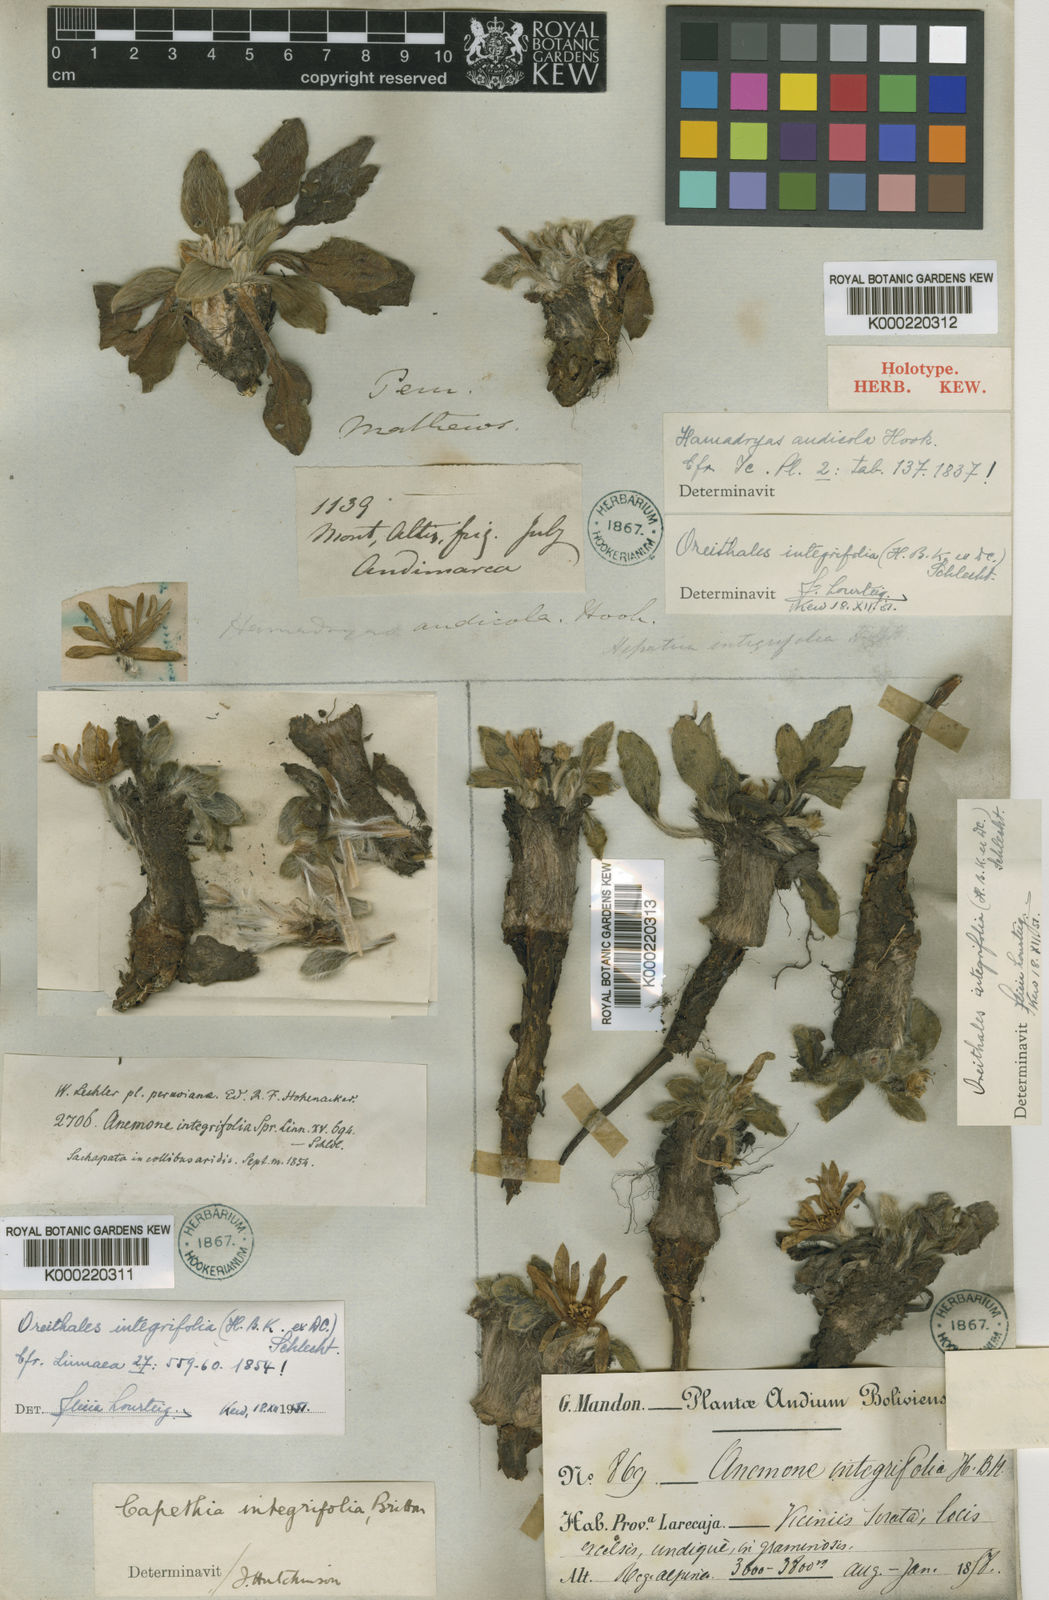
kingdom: Plantae
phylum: Tracheophyta
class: Magnoliopsida
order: Ranunculales
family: Ranunculaceae
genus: Knowltonia
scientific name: Knowltonia integrifolia
